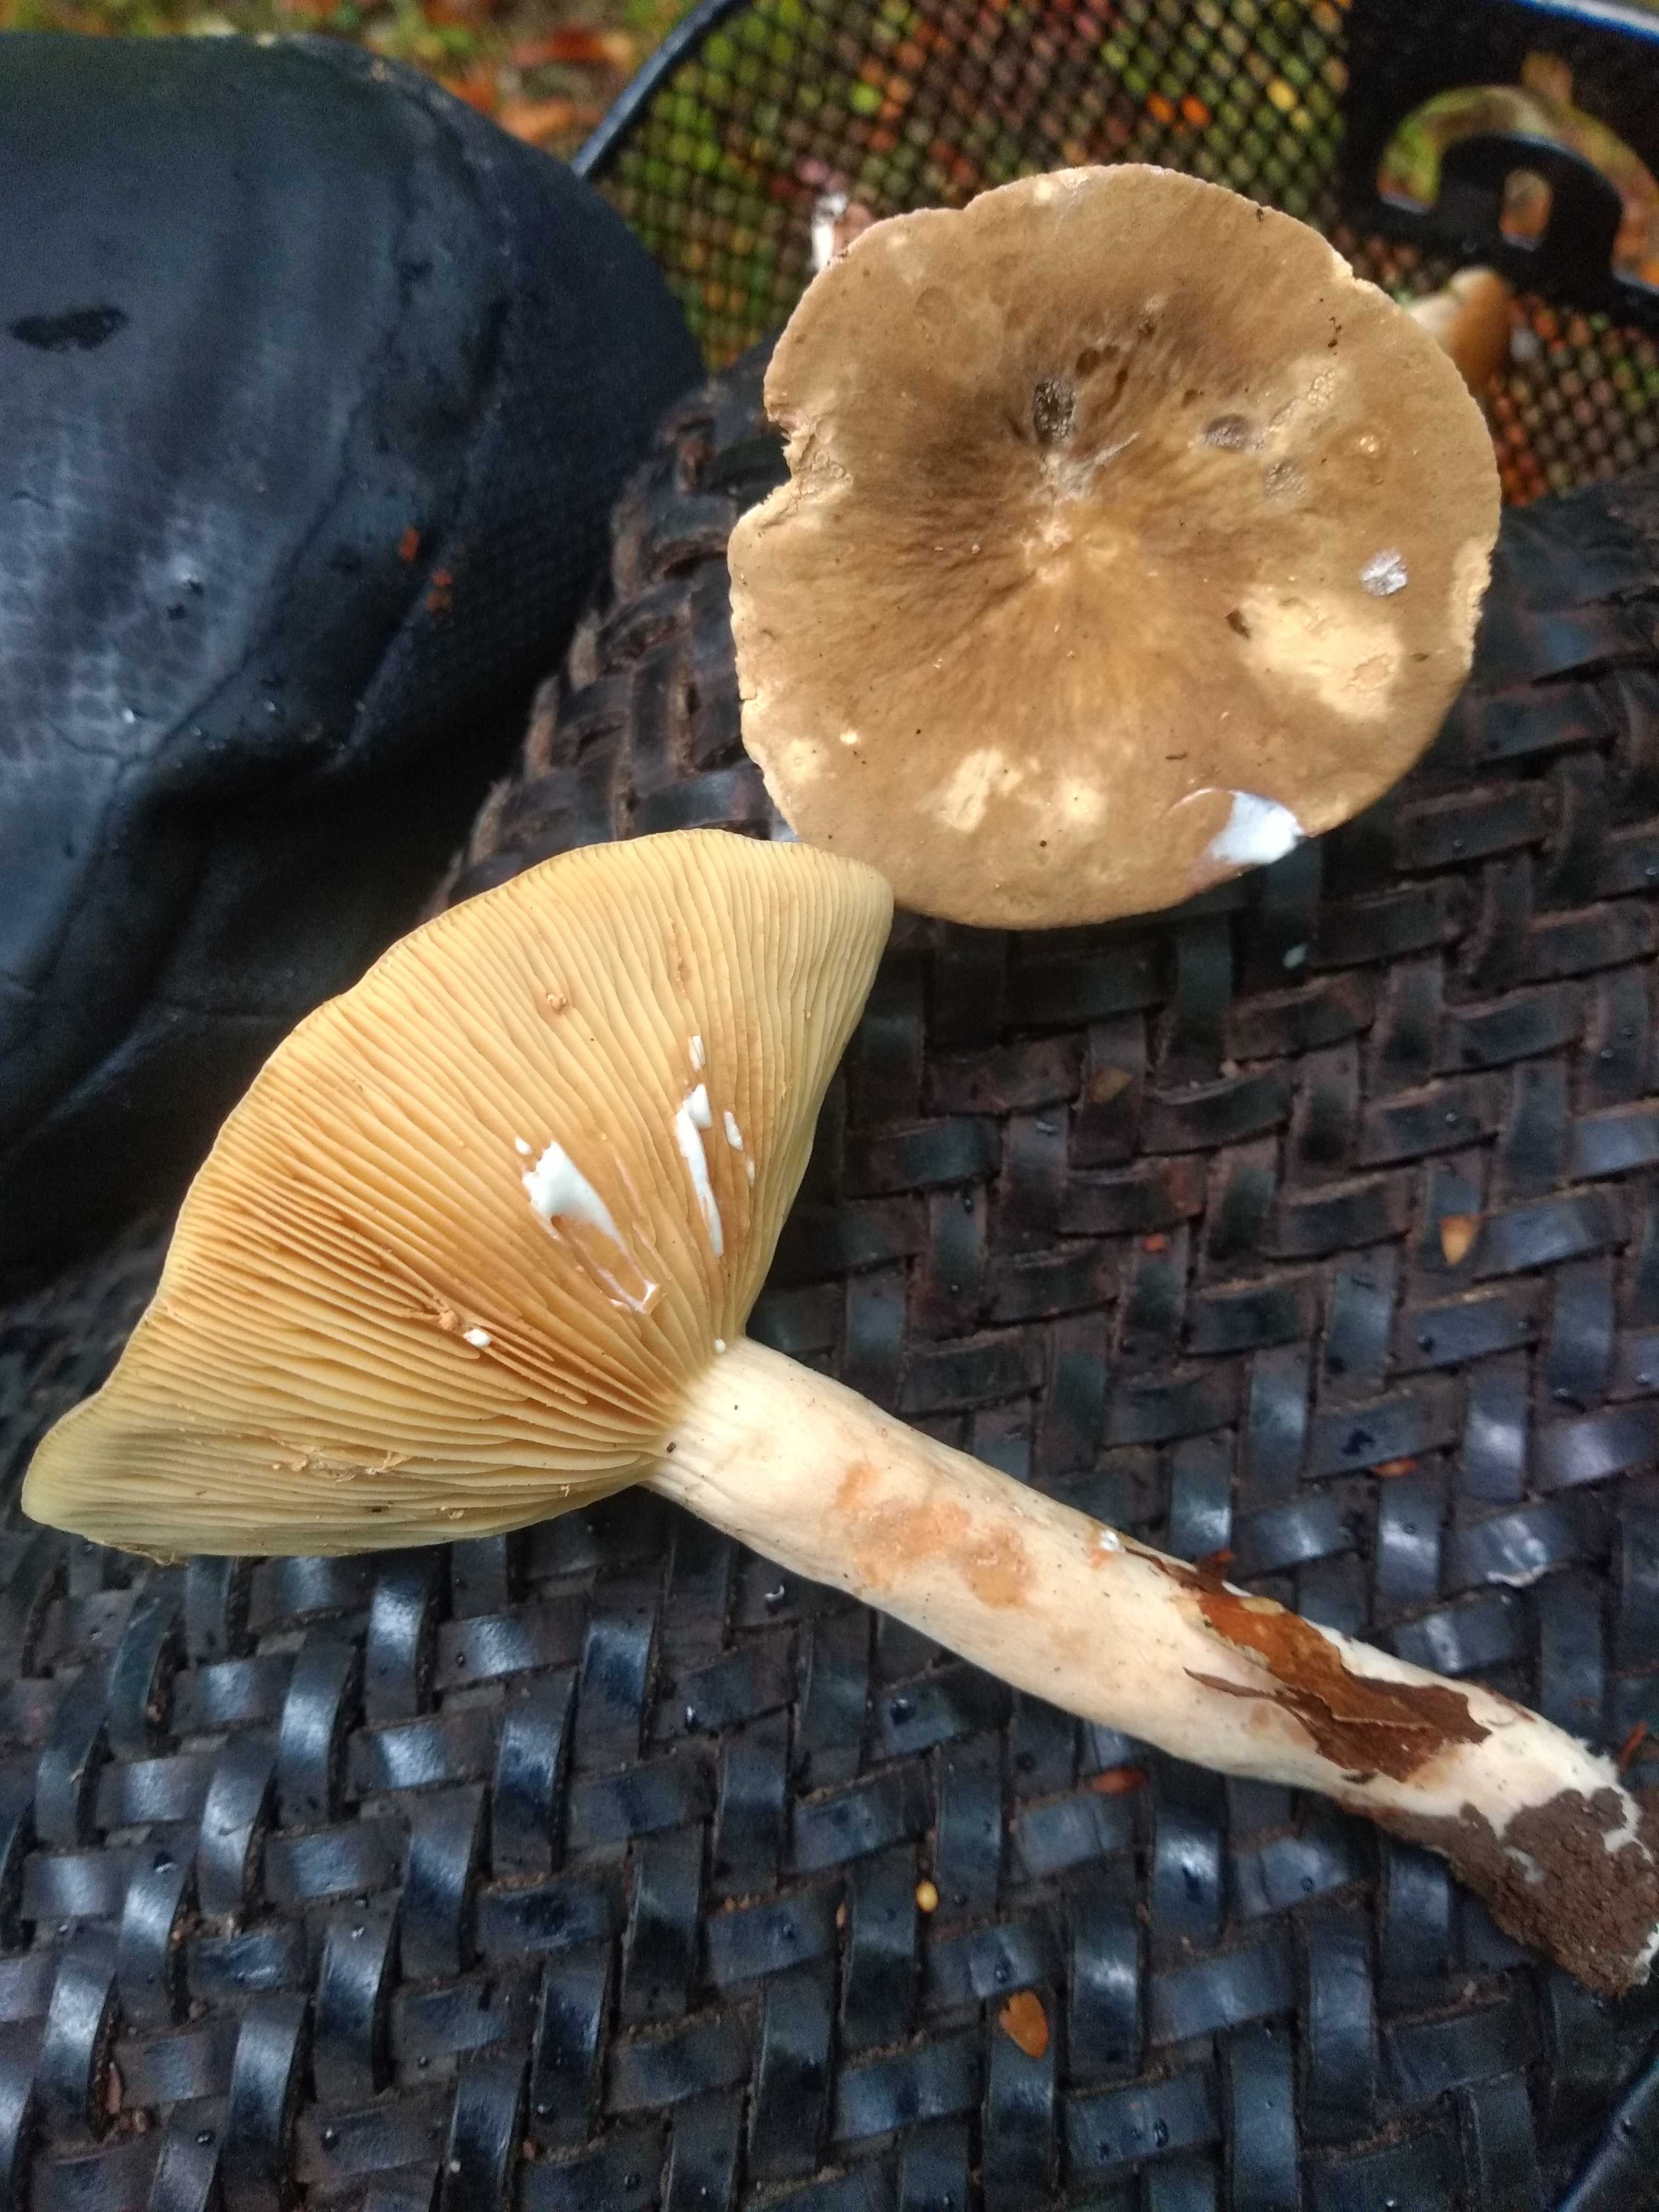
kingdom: Fungi
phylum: Basidiomycota
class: Agaricomycetes
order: Russulales
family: Russulaceae
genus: Lactarius
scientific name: Lactarius pterosporus
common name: vingesporet mælkehat
